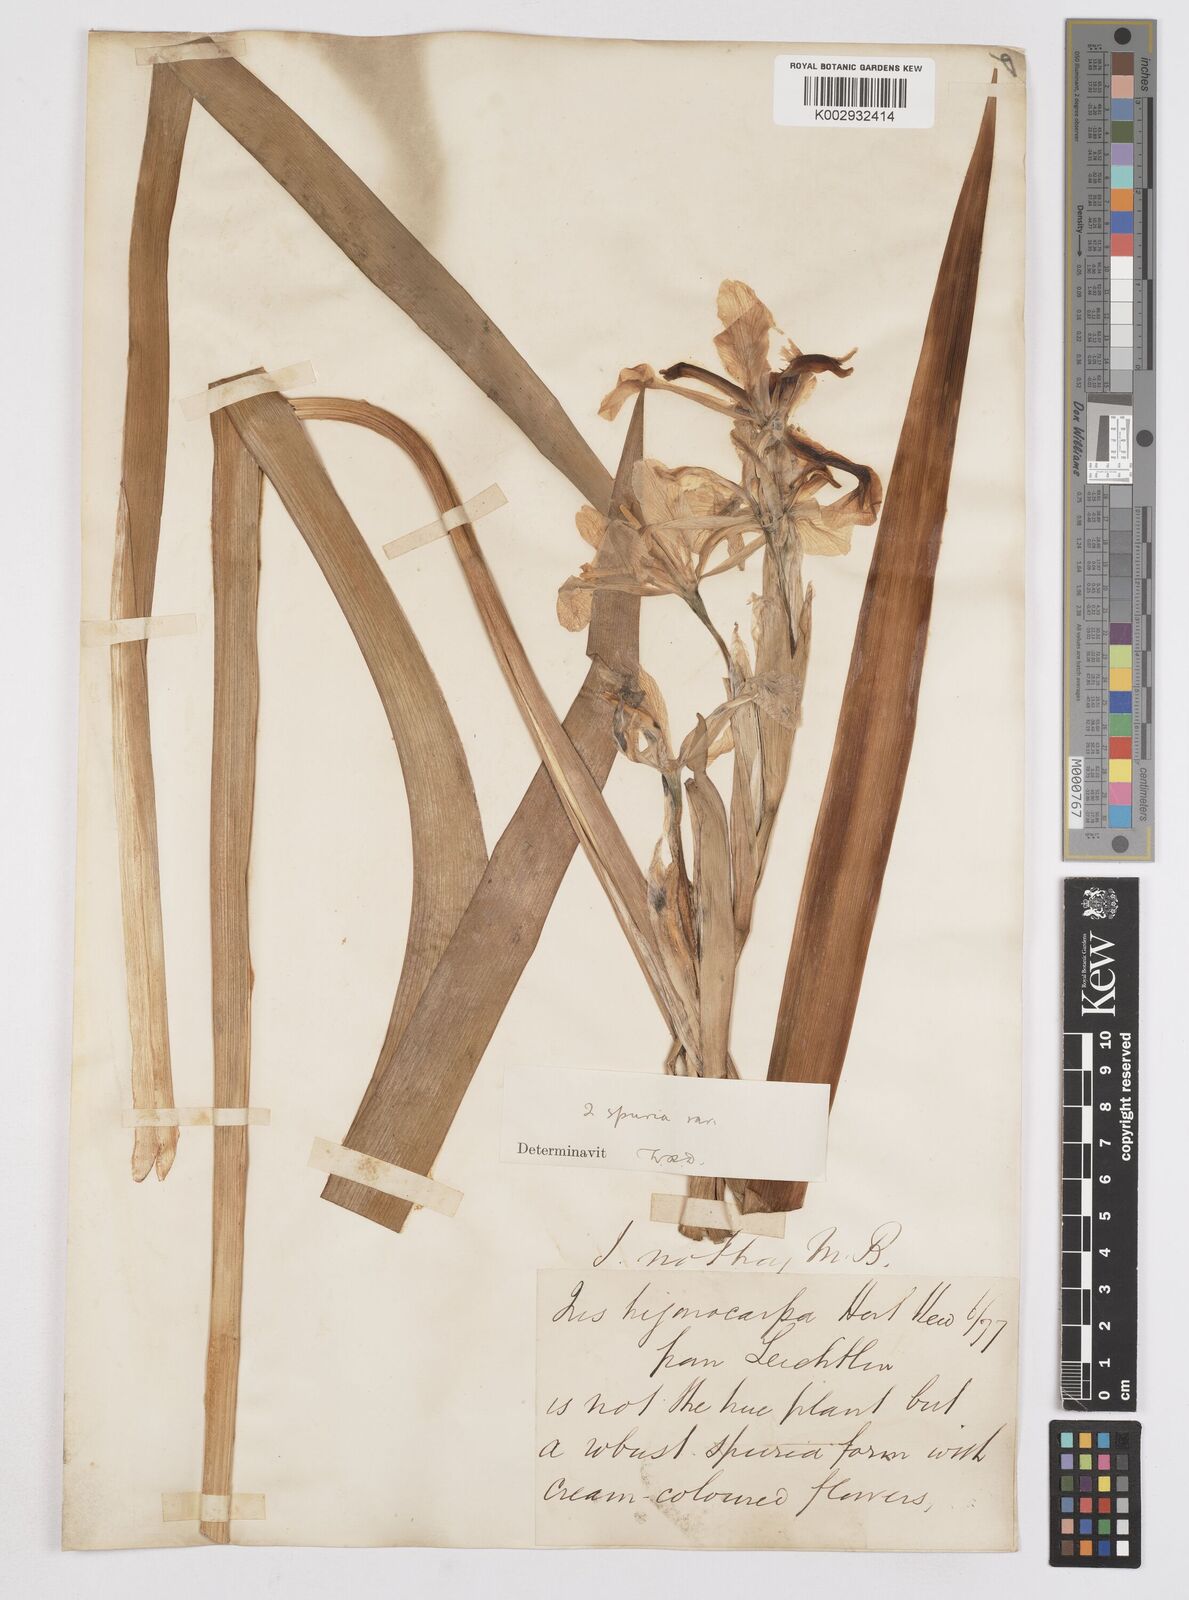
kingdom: Plantae
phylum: Tracheophyta
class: Liliopsida
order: Asparagales
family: Iridaceae
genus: Iris
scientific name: Iris spuria
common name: Blue iris
